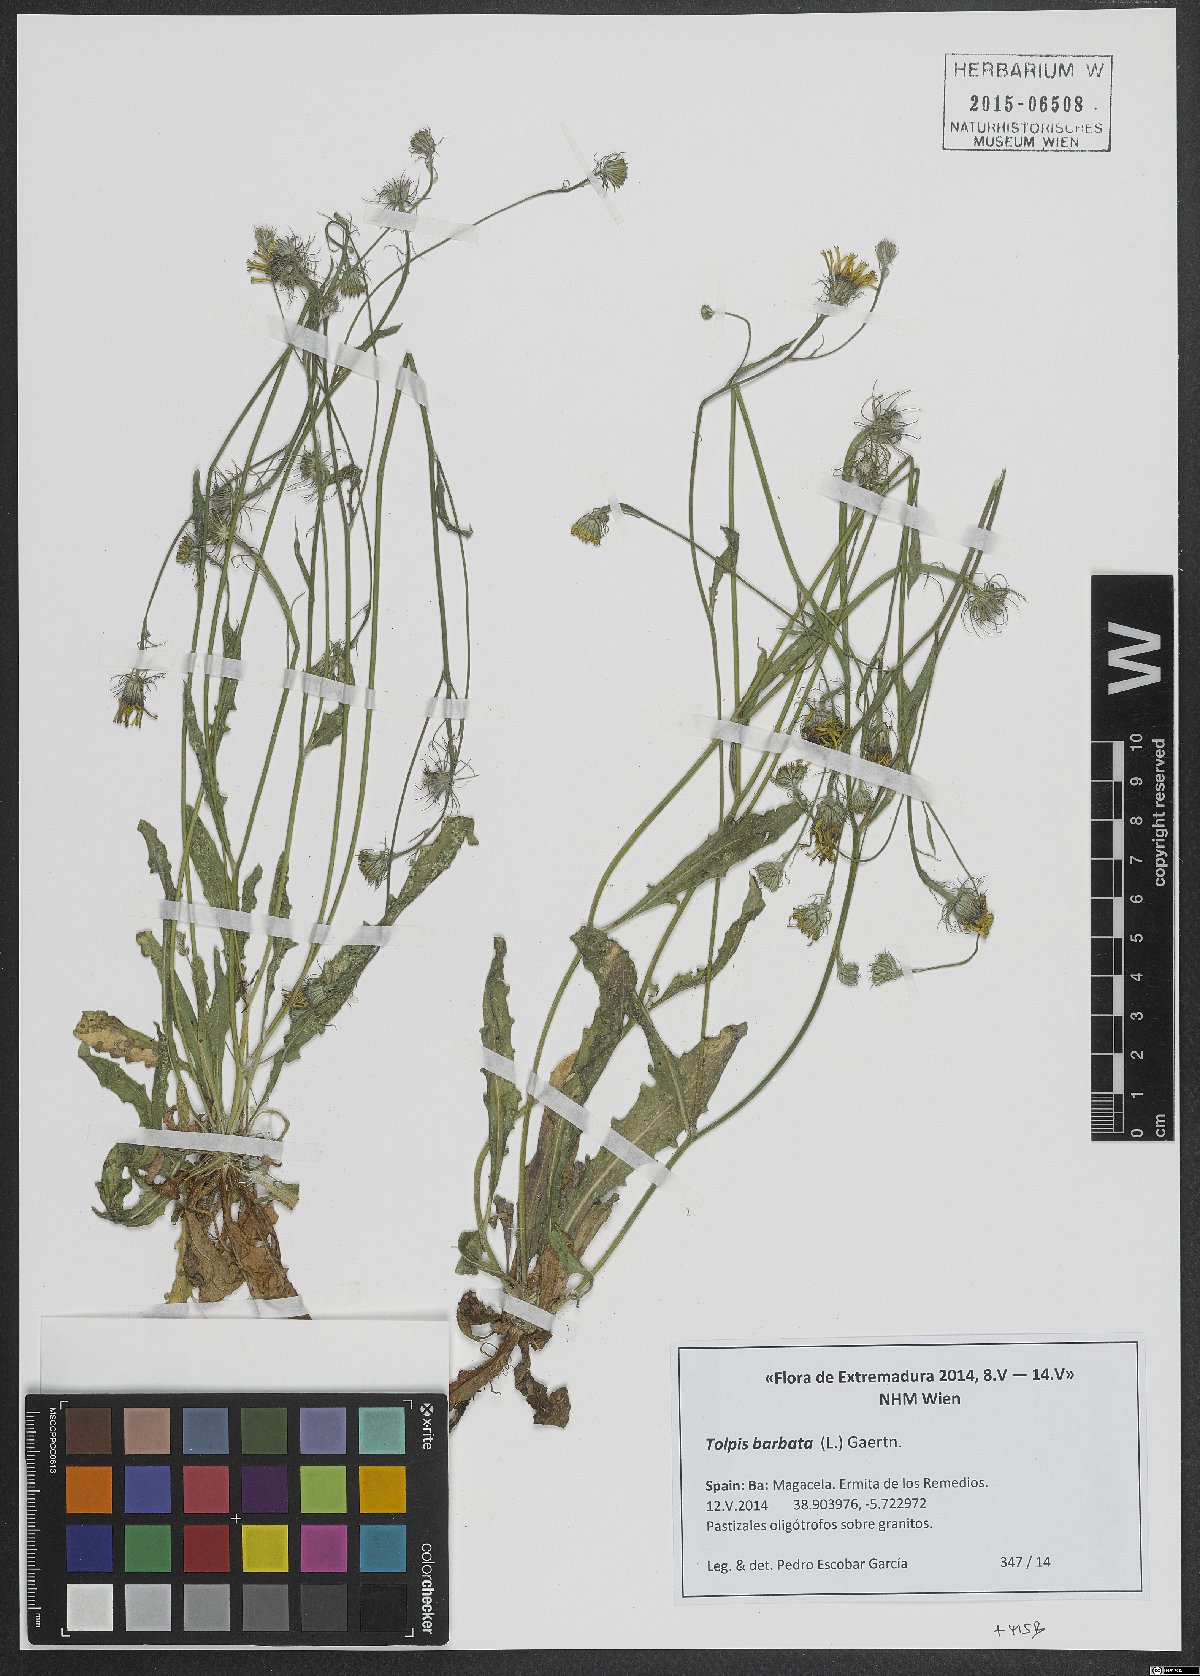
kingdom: Plantae
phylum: Tracheophyta
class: Magnoliopsida
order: Asterales
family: Asteraceae
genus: Tolpis
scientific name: Tolpis barbata
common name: Yellow hawkweed
